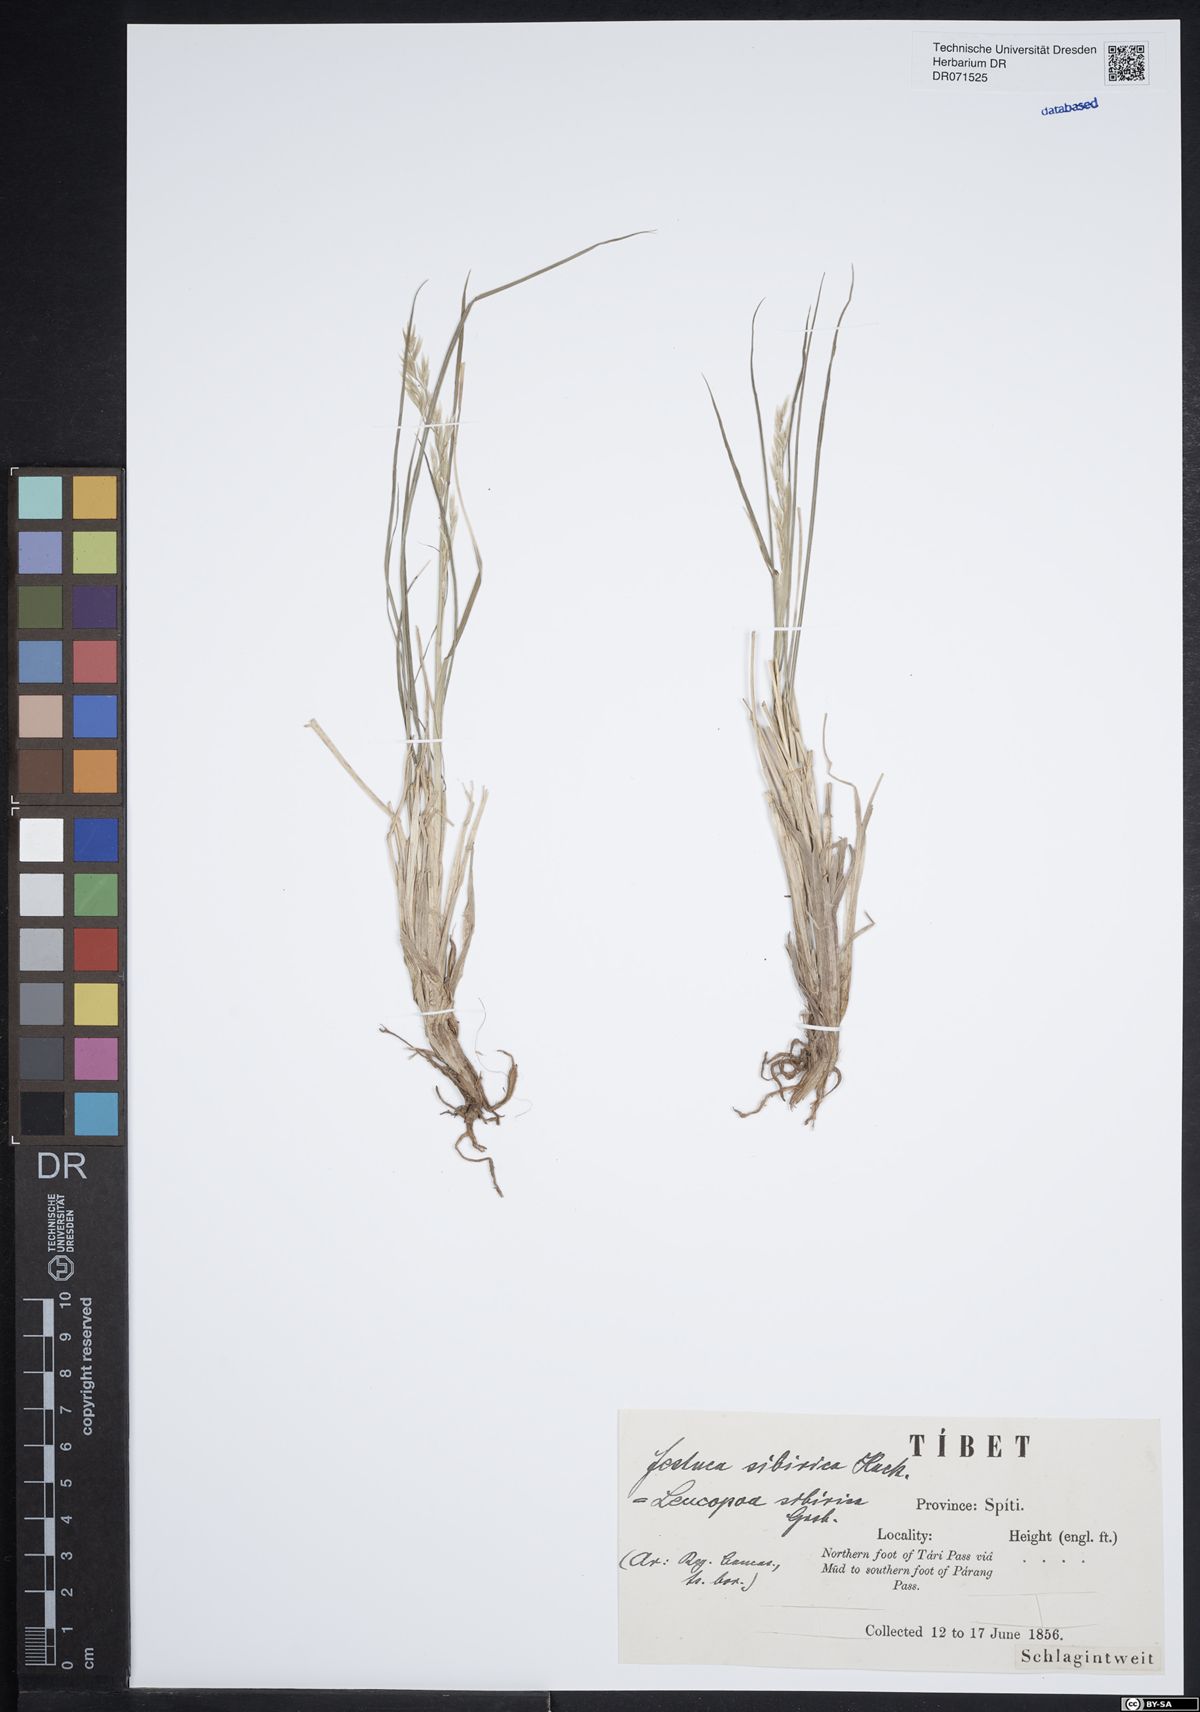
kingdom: Plantae
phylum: Tracheophyta
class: Liliopsida
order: Poales
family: Poaceae
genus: Festuca
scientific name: Festuca sibirica
